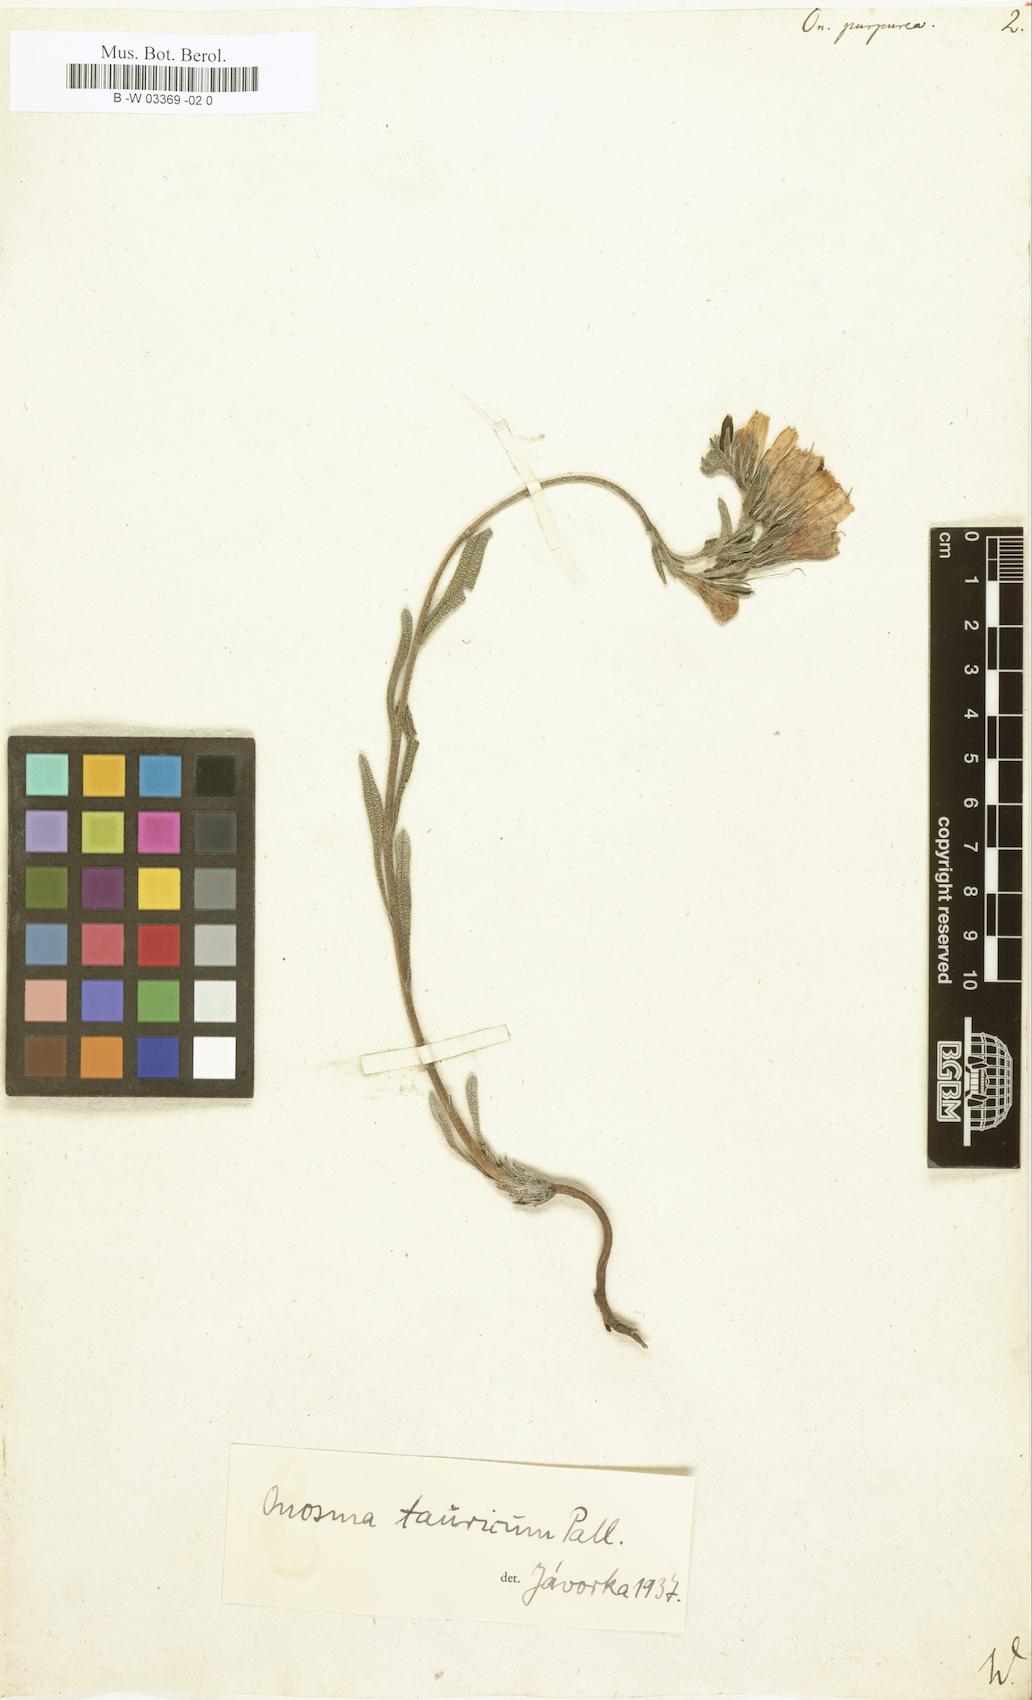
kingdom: Plantae
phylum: Tracheophyta
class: Magnoliopsida
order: Boraginales
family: Boraginaceae
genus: Onosma
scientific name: Onosma
